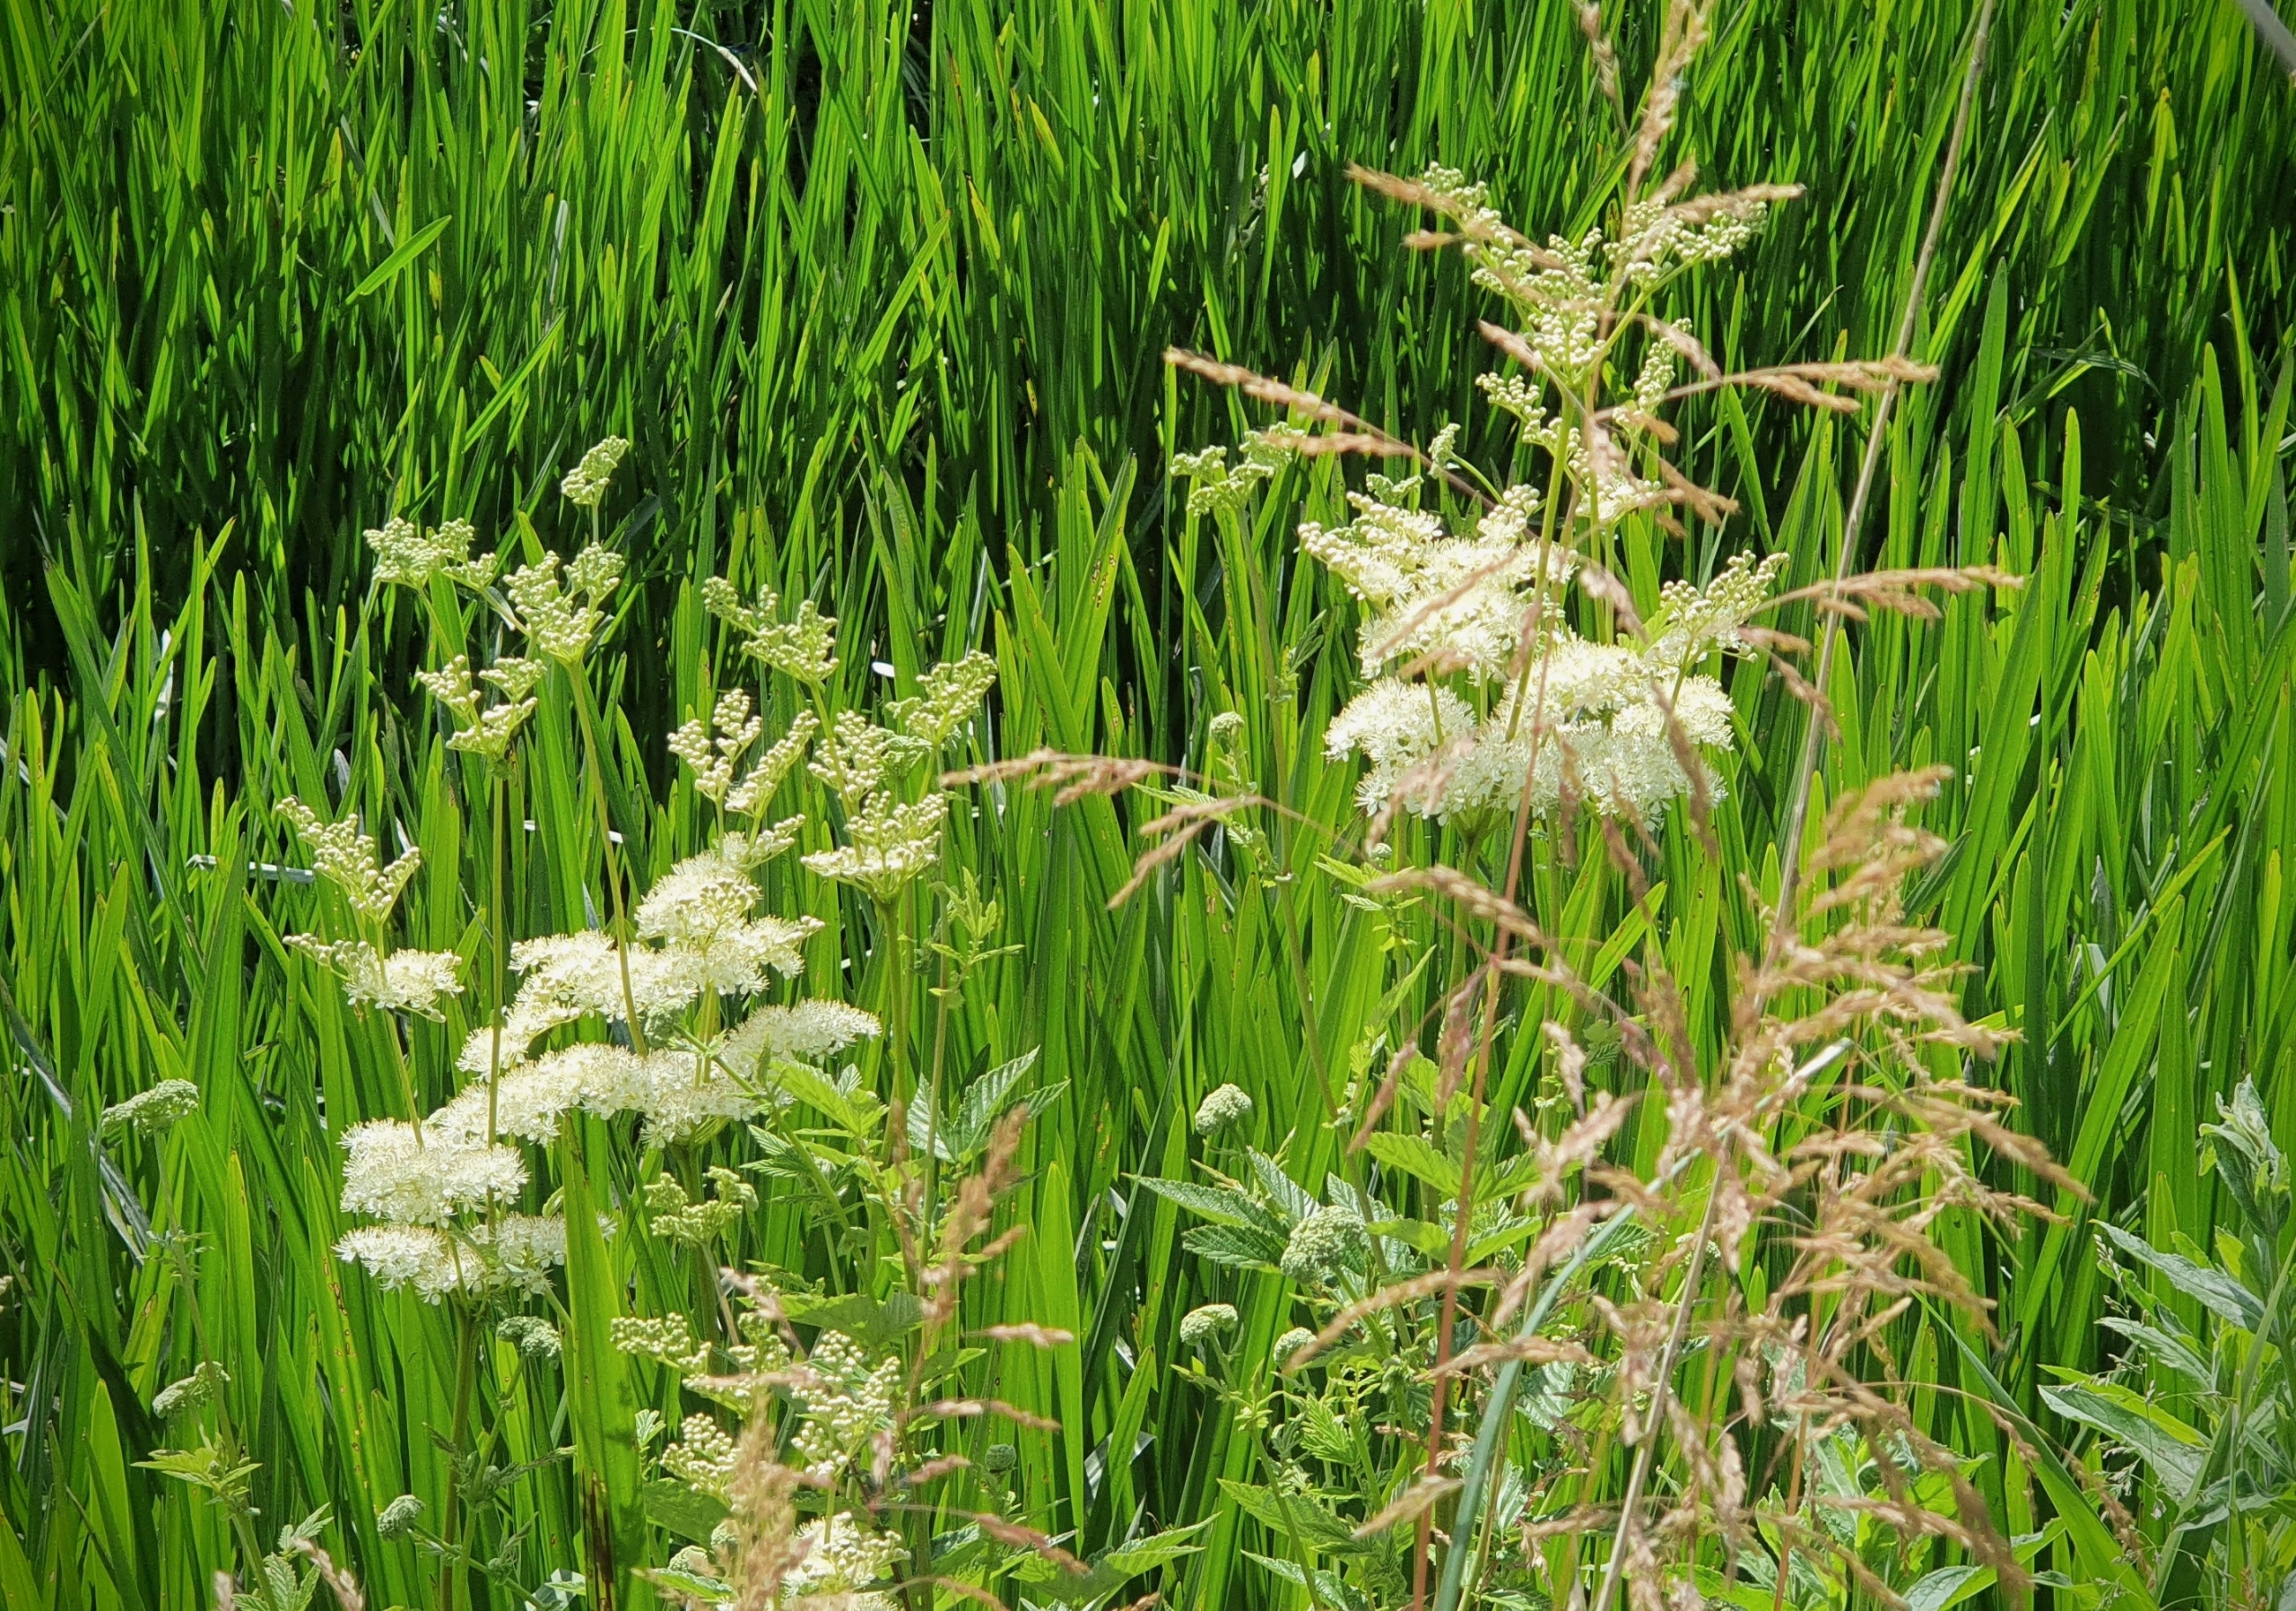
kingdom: Plantae
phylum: Tracheophyta
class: Magnoliopsida
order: Rosales
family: Rosaceae
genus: Filipendula
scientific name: Filipendula ulmaria
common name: Almindelig mjødurt
